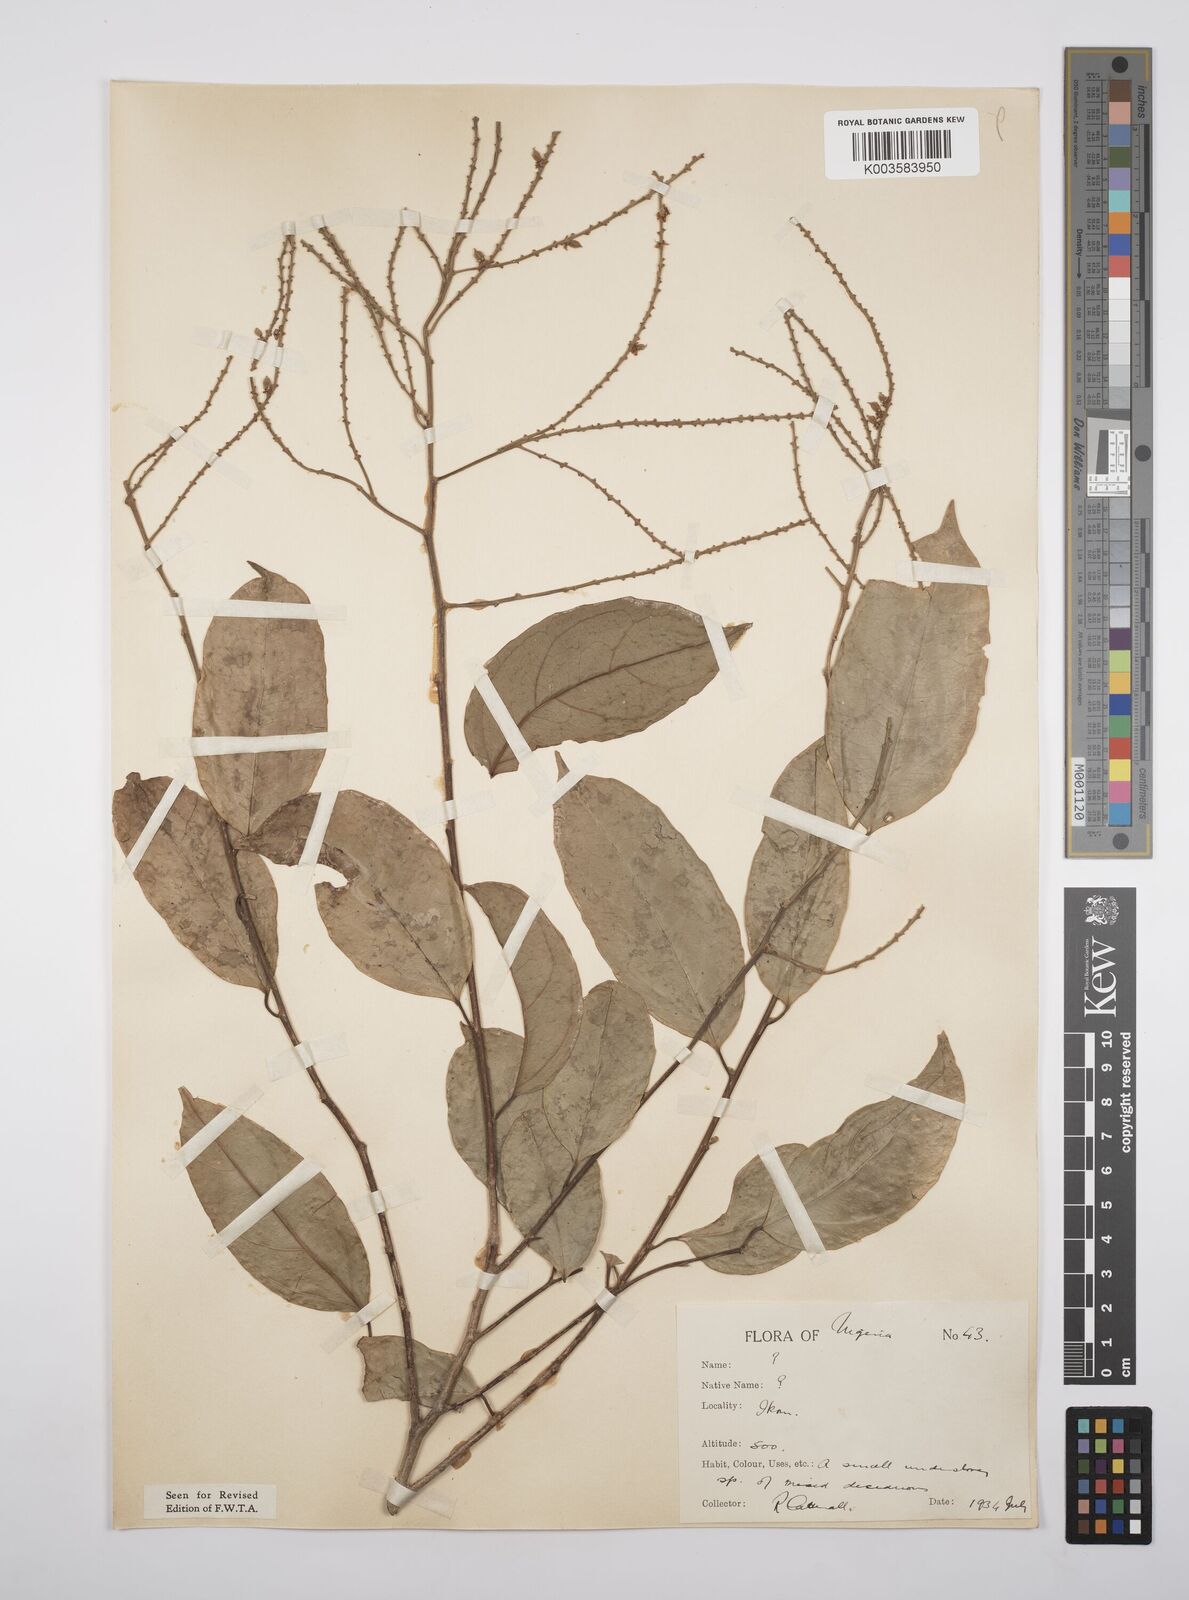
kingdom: Plantae
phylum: Tracheophyta
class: Magnoliopsida
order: Malpighiales
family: Salicaceae
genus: Ophiobotrys
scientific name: Ophiobotrys
